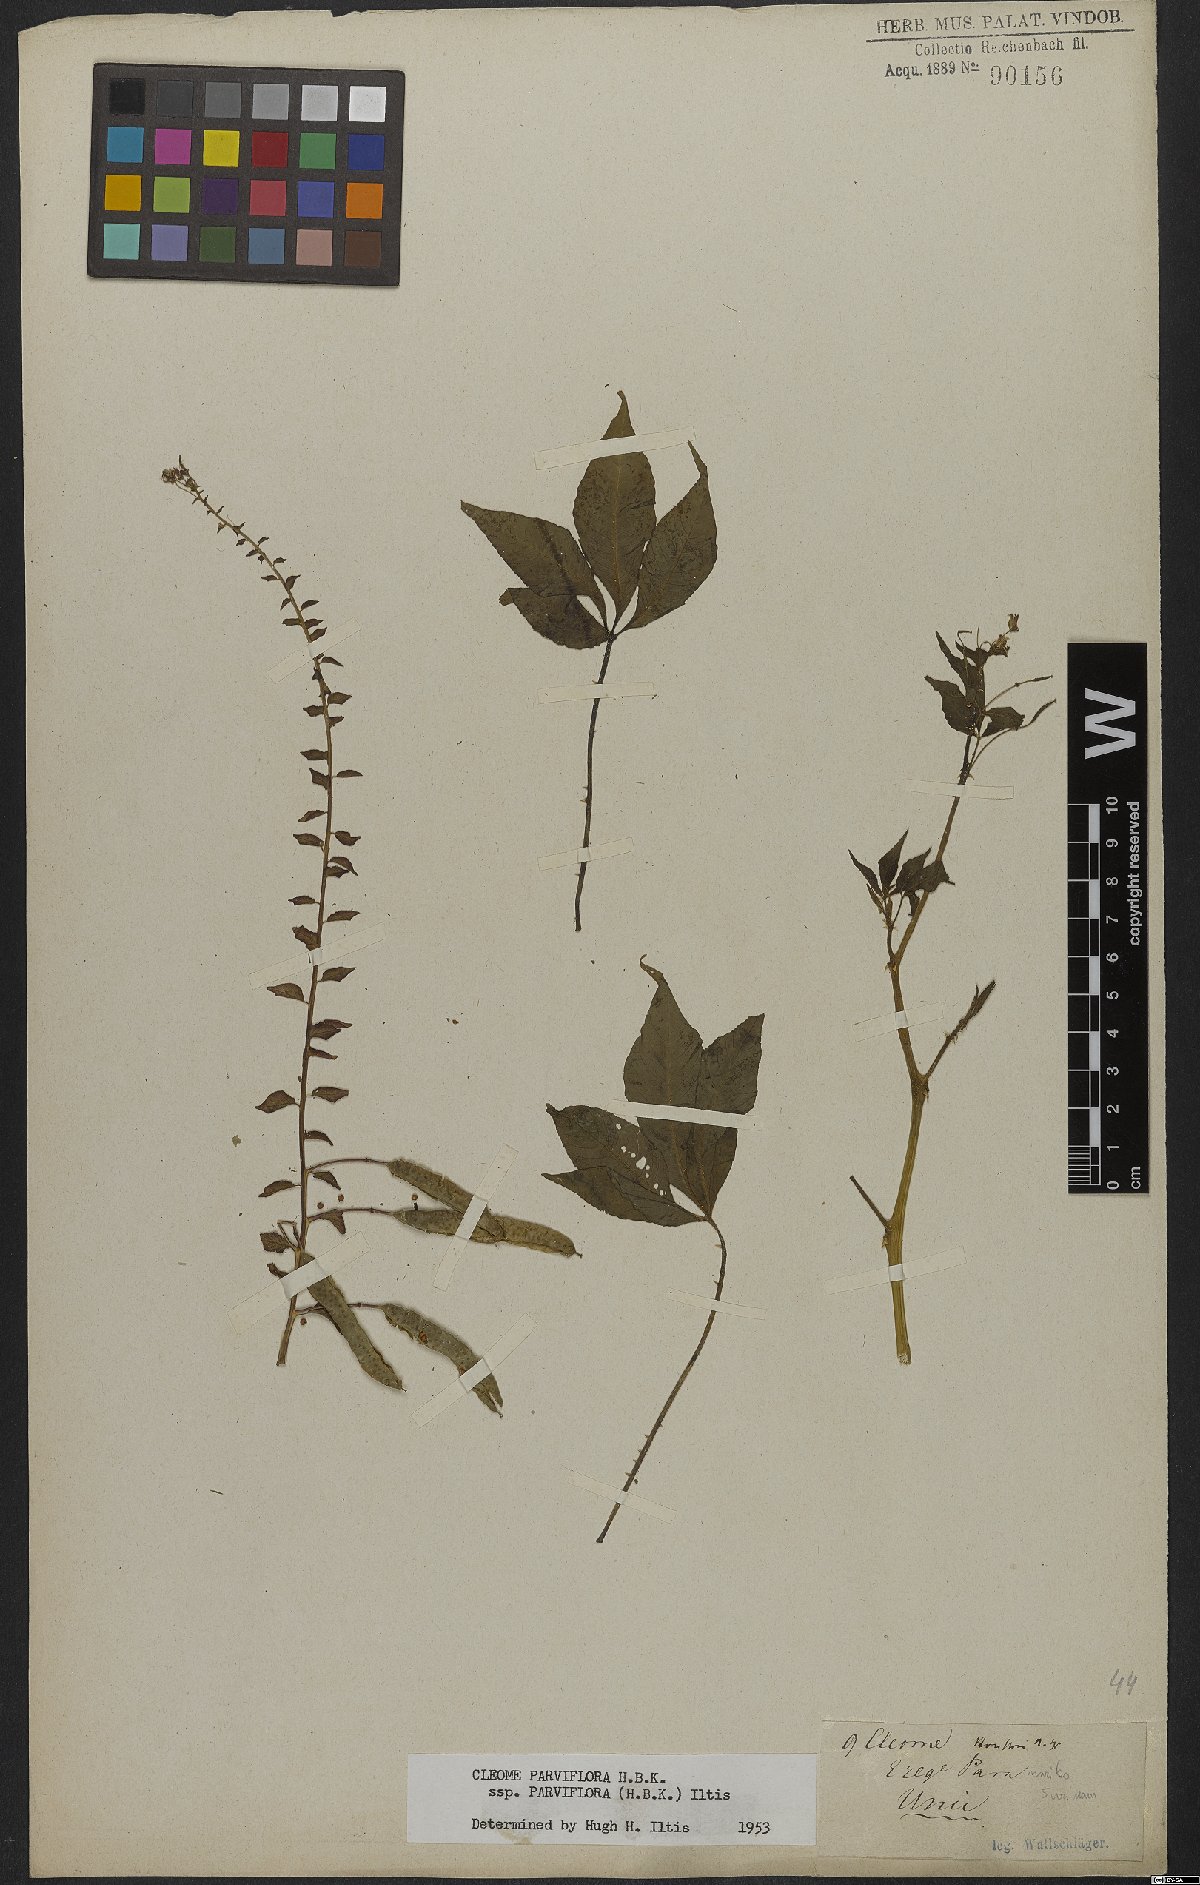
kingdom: Plantae
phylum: Tracheophyta
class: Magnoliopsida
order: Brassicales
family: Cleomaceae
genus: Tarenaya
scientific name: Tarenaya parviflora
